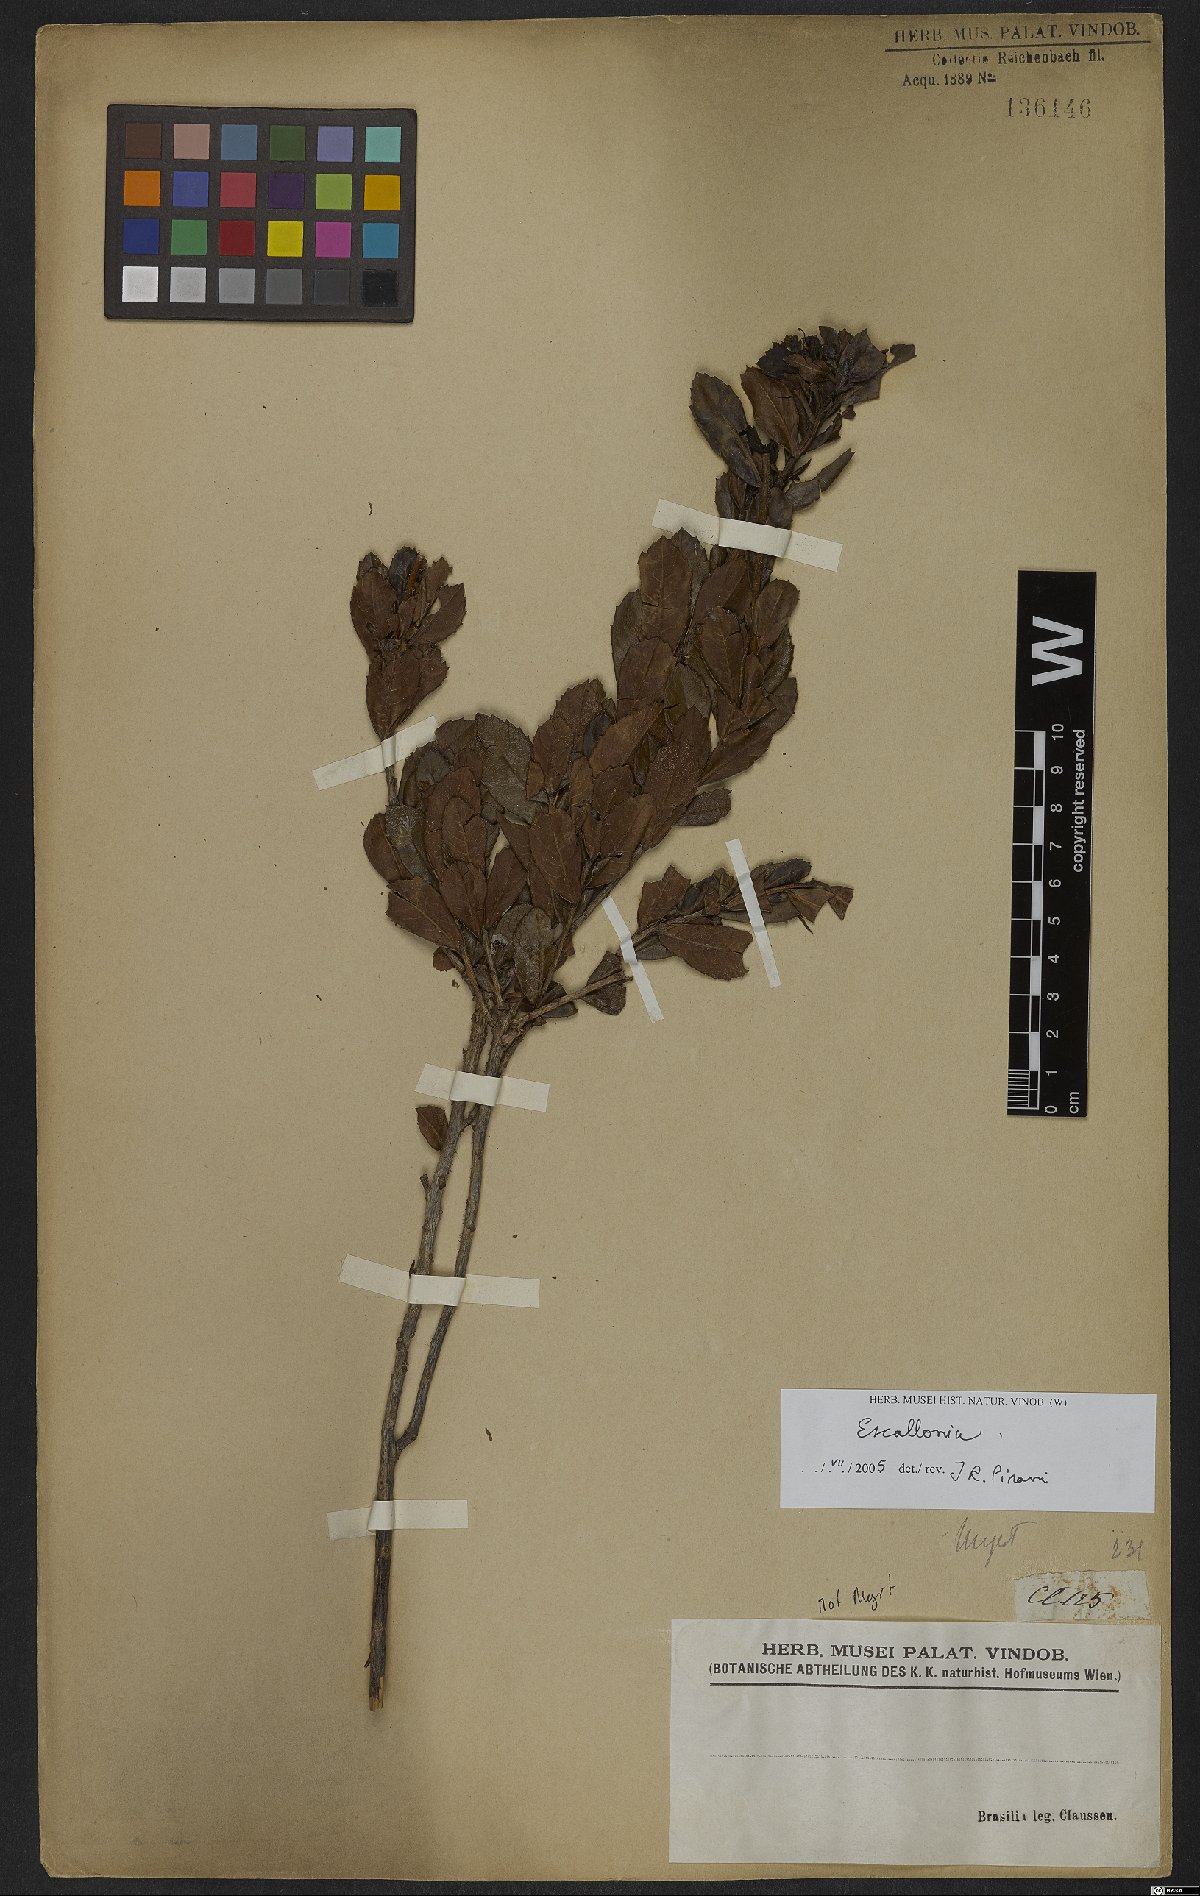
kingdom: Plantae
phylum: Tracheophyta
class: Magnoliopsida
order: Escalloniales
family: Escalloniaceae
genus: Escallonia
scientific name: Escallonia
